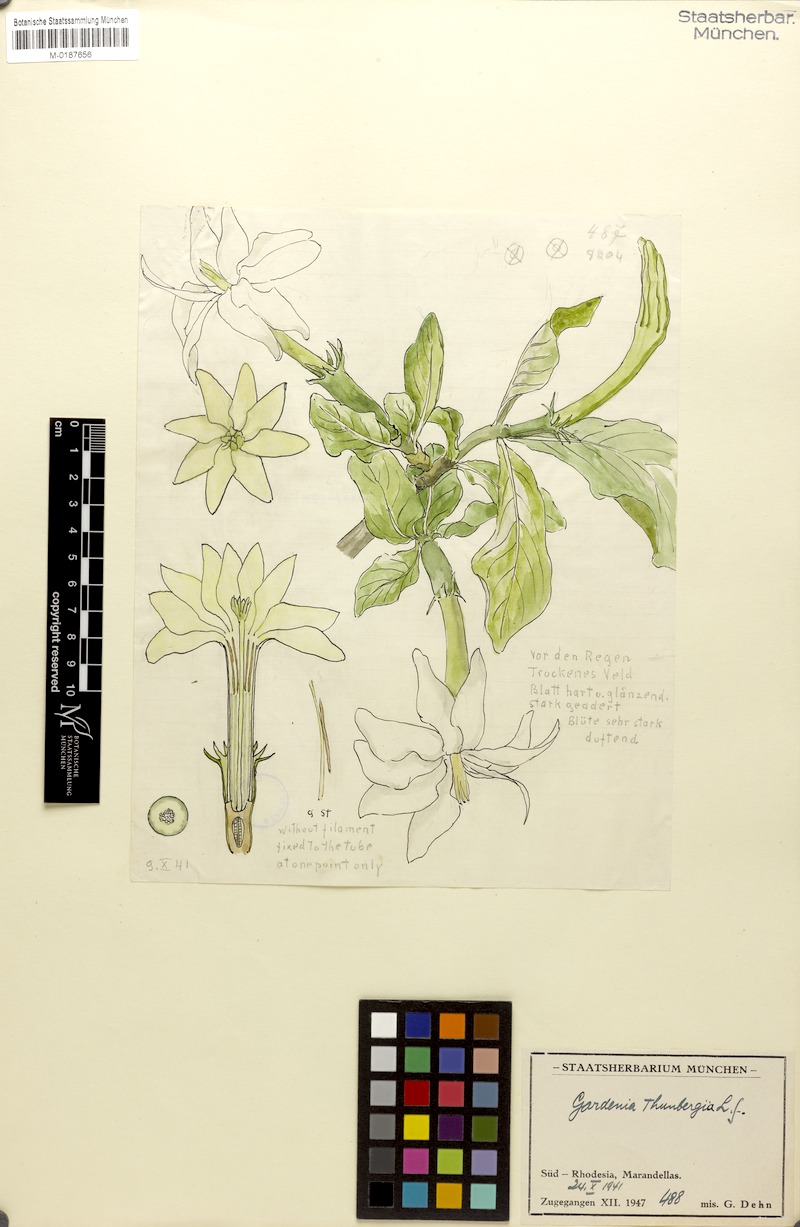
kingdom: Plantae
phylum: Tracheophyta
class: Magnoliopsida
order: Gentianales
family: Rubiaceae
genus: Gardenia
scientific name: Gardenia ternifolia
